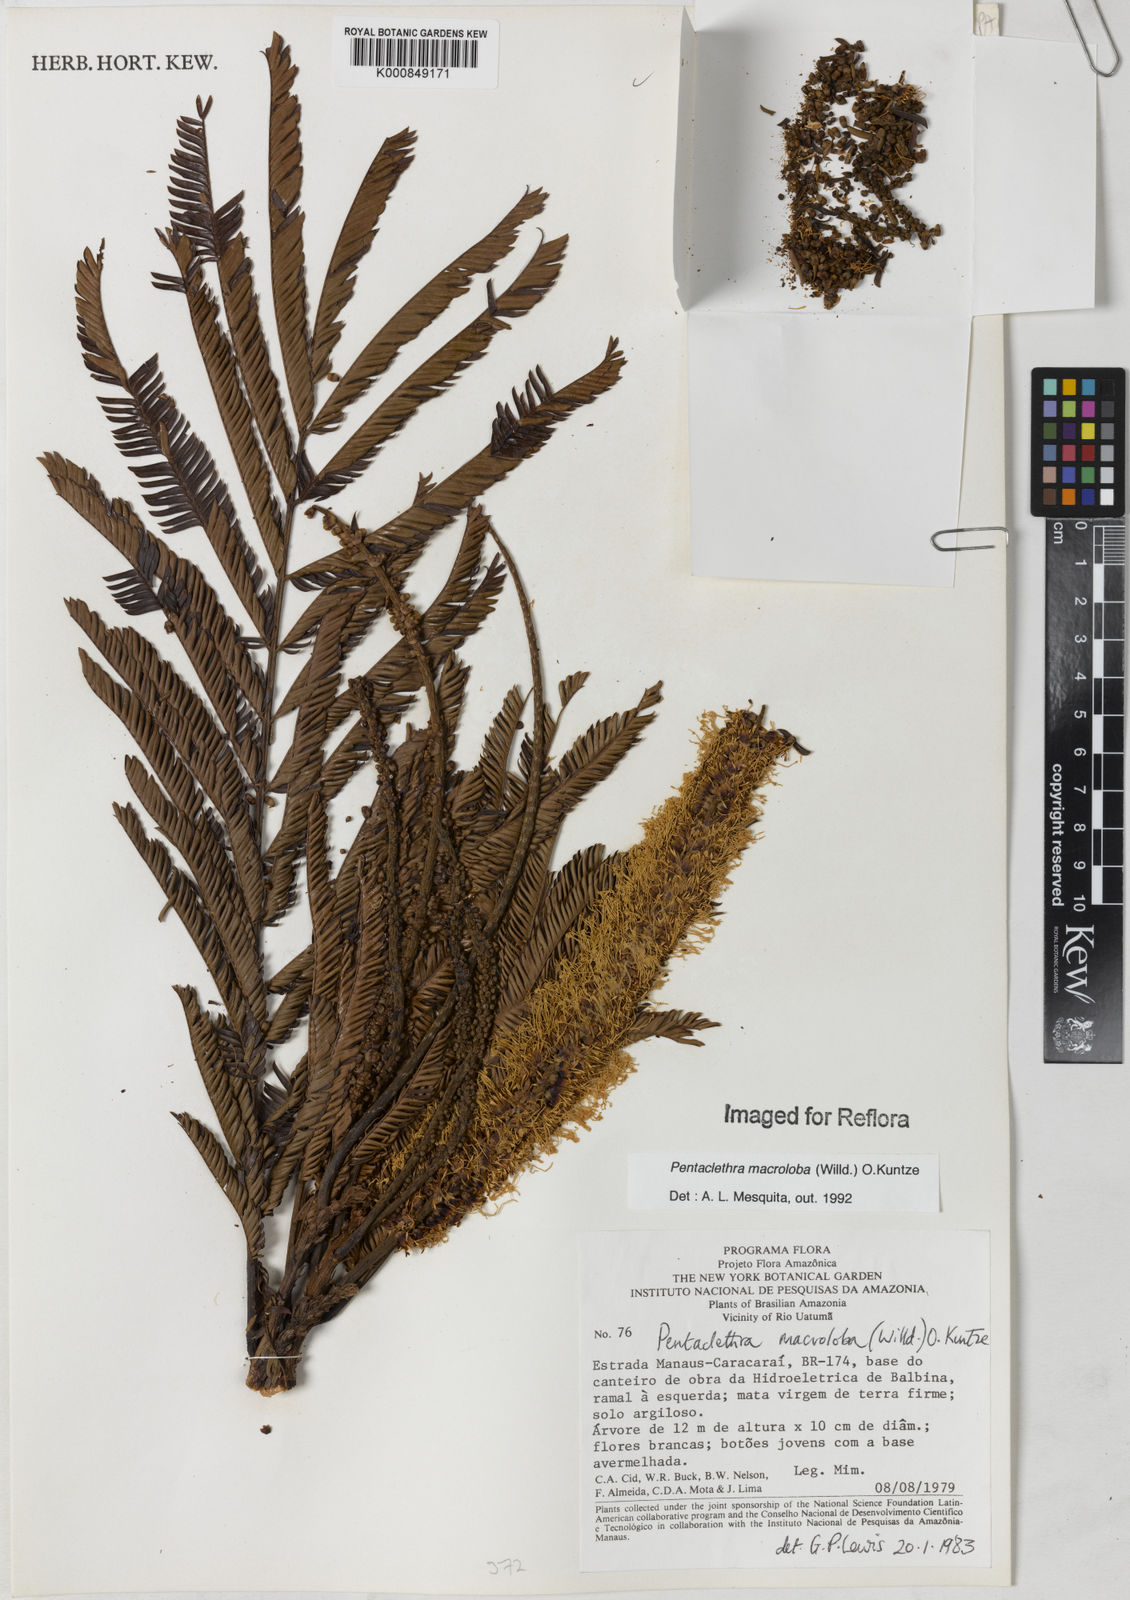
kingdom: Plantae
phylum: Tracheophyta
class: Magnoliopsida
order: Fabales
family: Fabaceae
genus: Pentaclethra
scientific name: Pentaclethra macroloba
